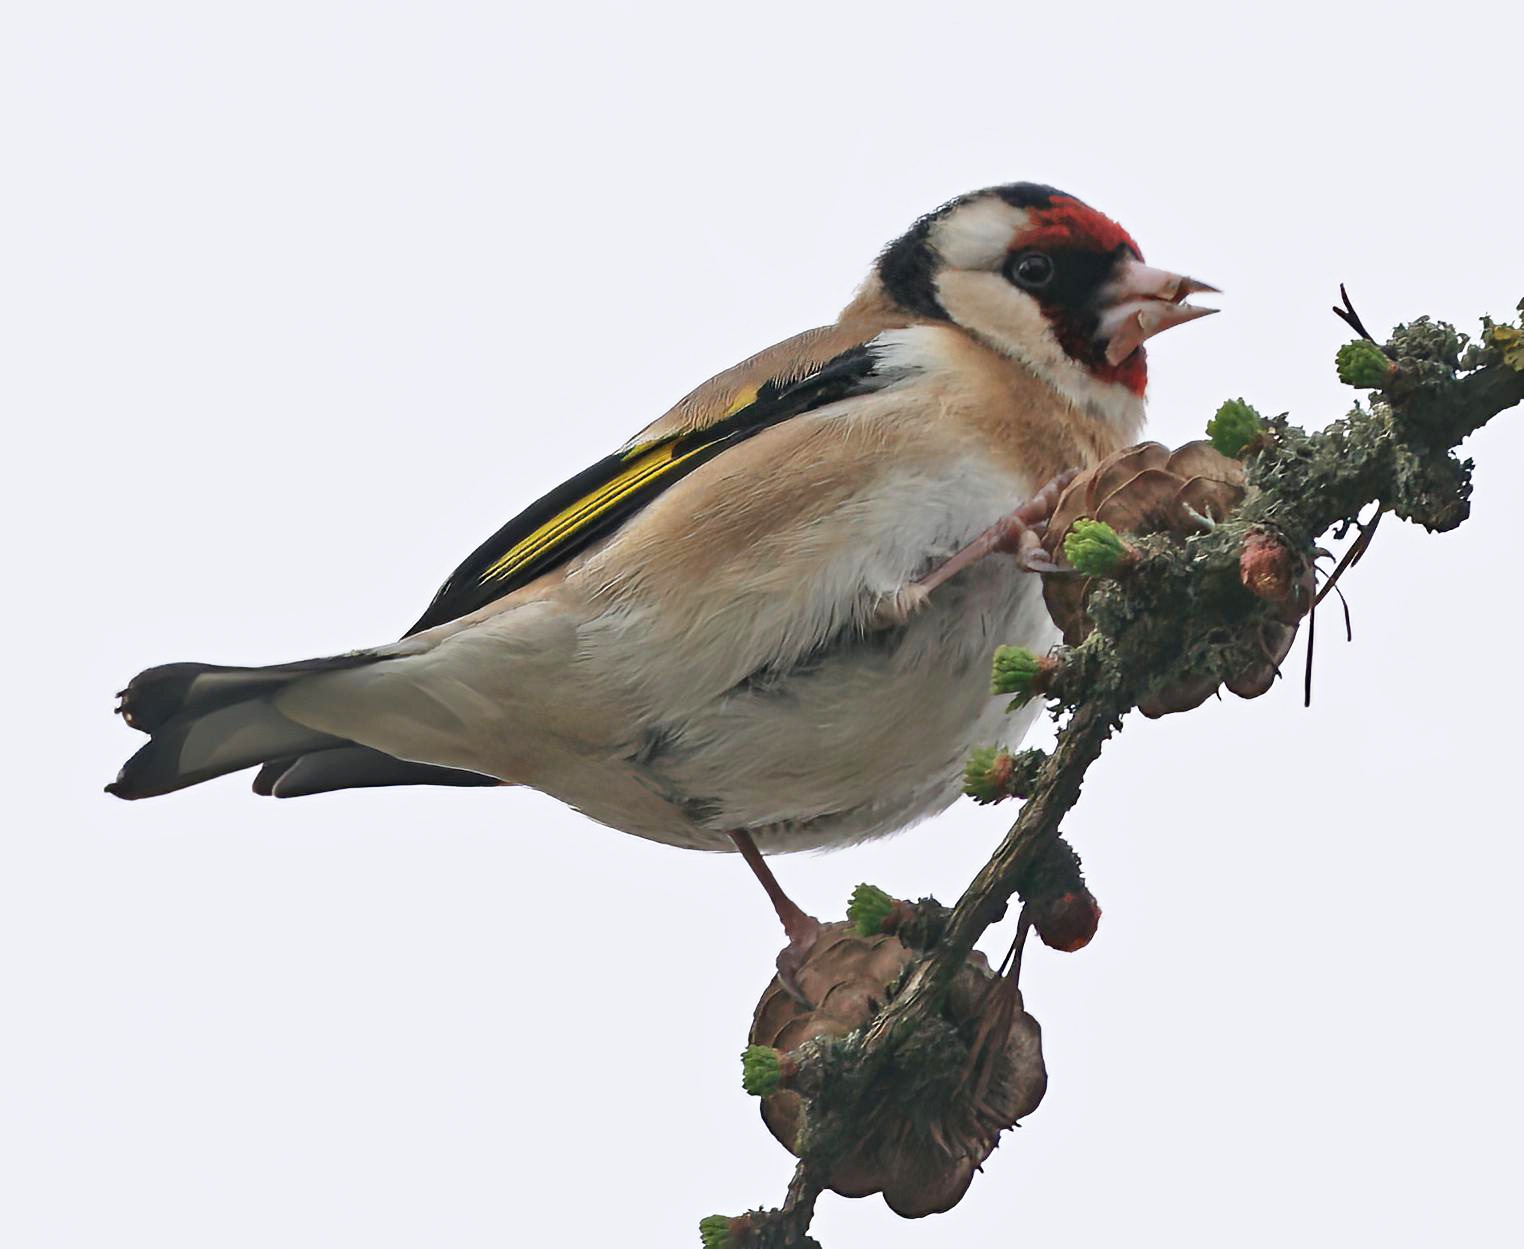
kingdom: Animalia
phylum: Chordata
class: Aves
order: Passeriformes
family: Fringillidae
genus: Carduelis
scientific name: Carduelis carduelis
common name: Stillits
